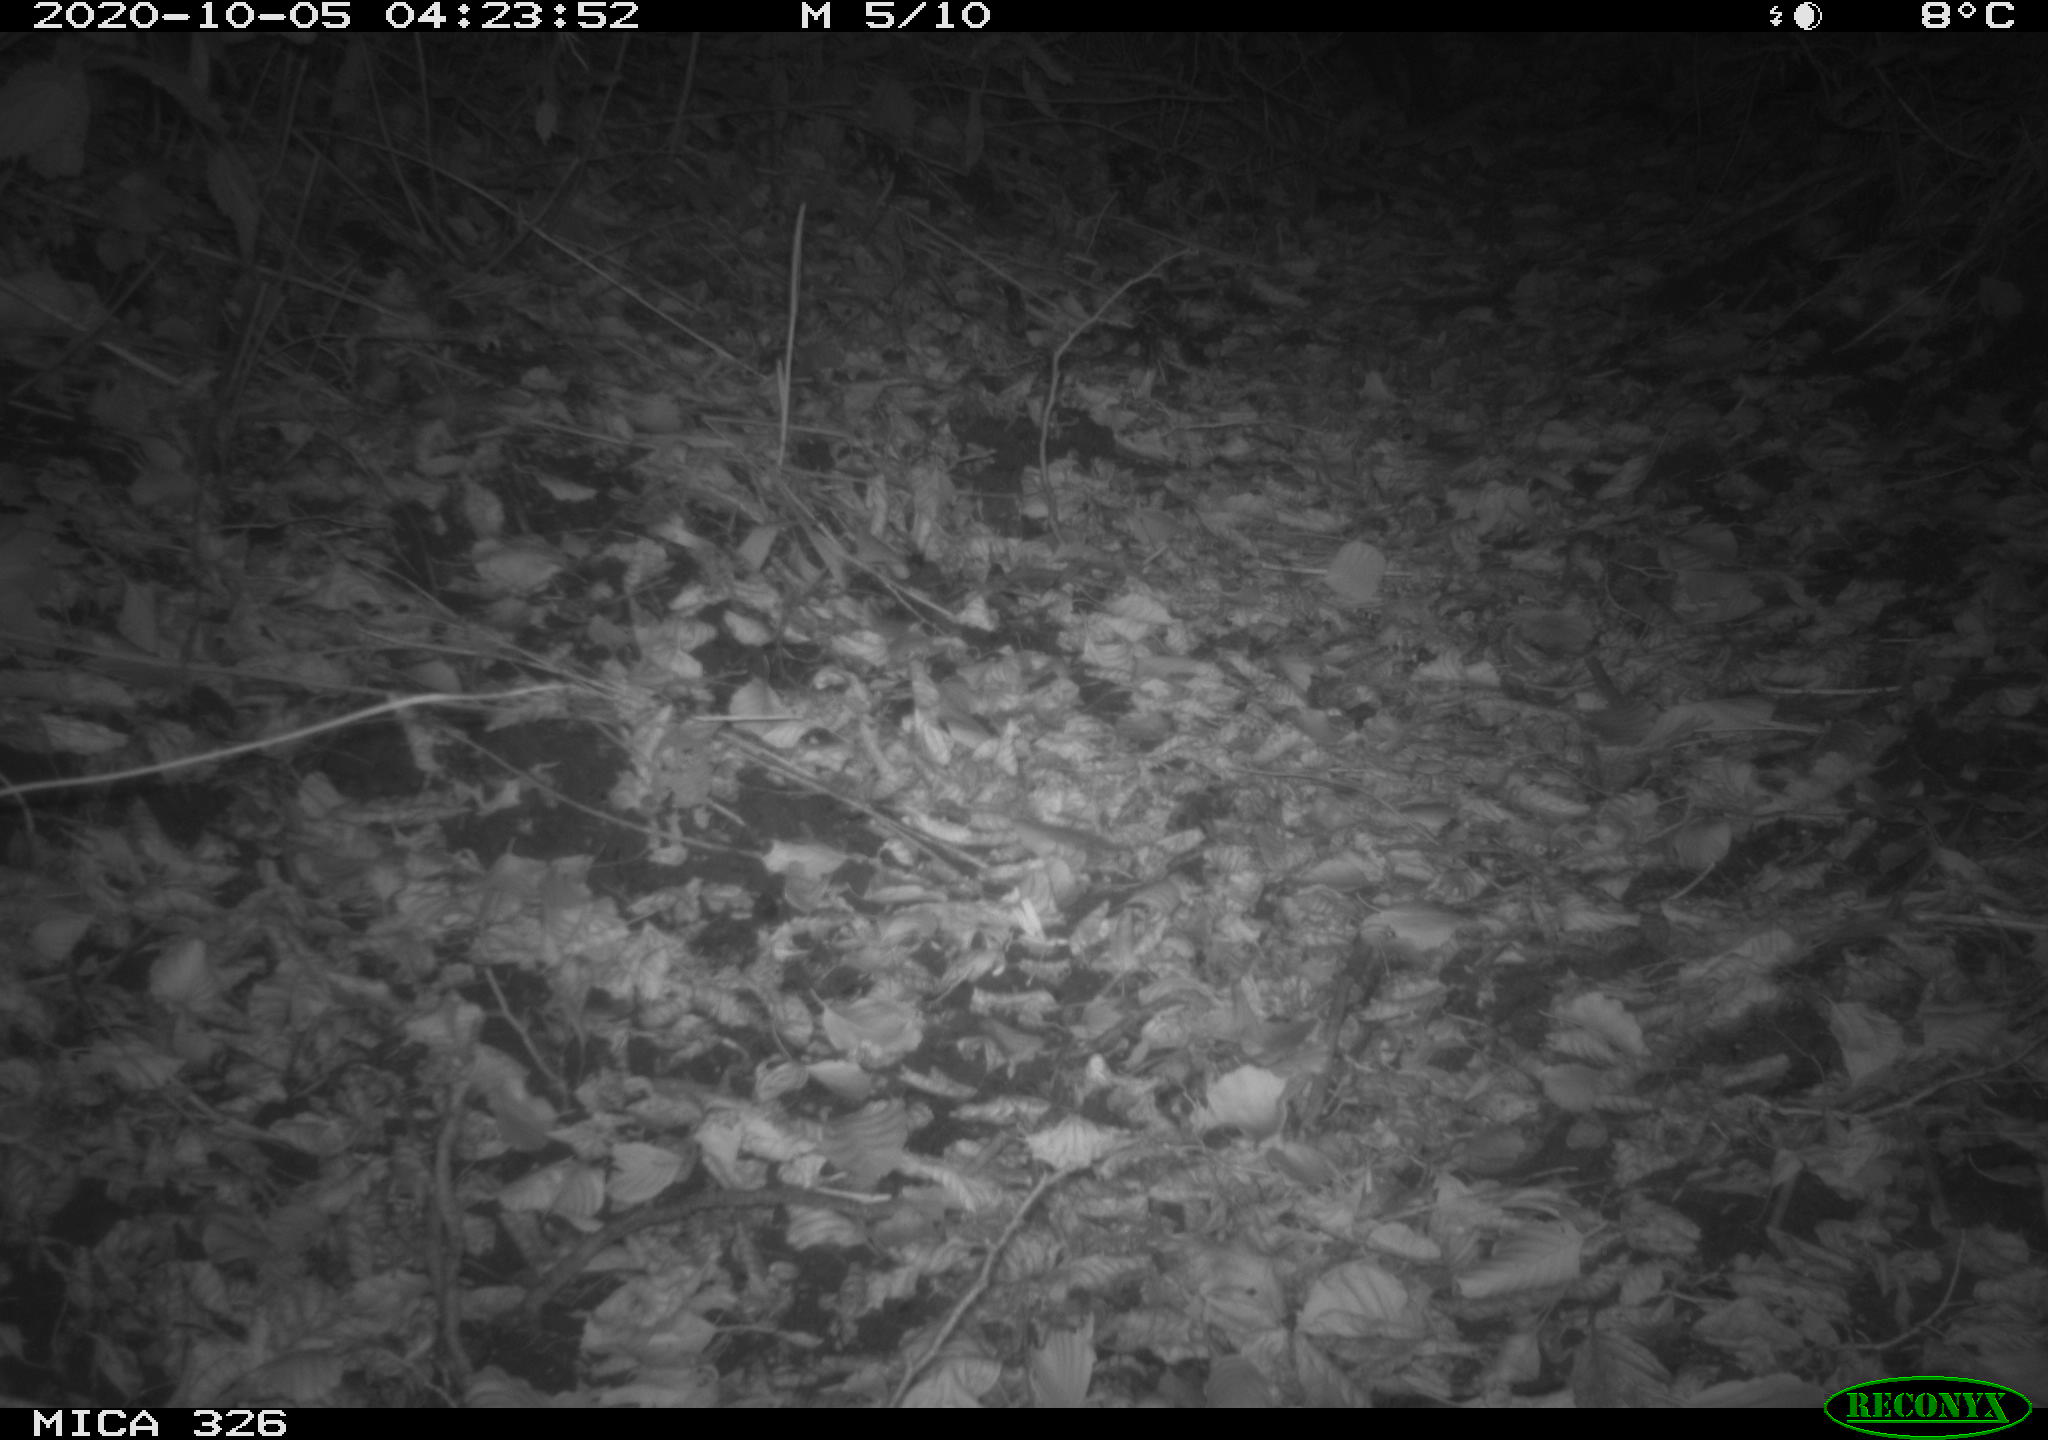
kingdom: Animalia
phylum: Chordata
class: Mammalia
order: Carnivora
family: Mustelidae
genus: Lutra
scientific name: Lutra lutra
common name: European otter
